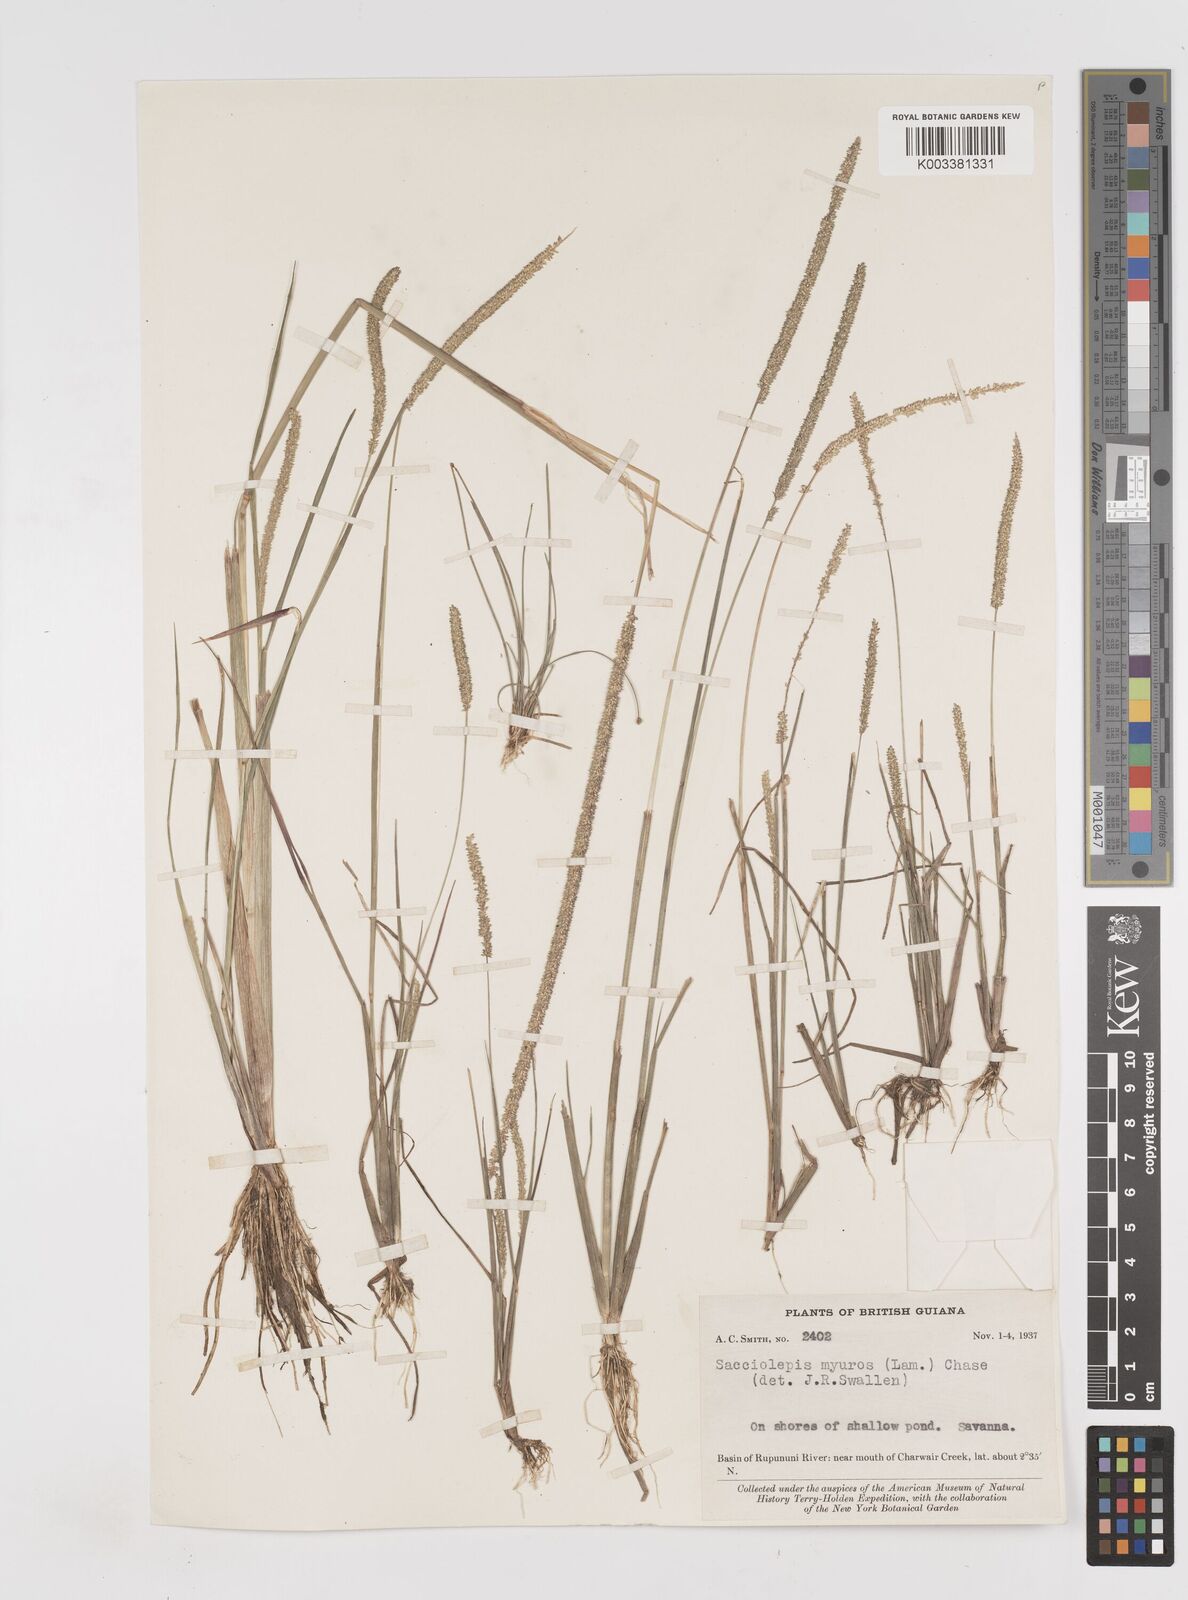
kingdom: Plantae
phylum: Tracheophyta
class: Liliopsida
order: Poales
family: Poaceae
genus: Sacciolepis
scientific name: Sacciolepis myuros
